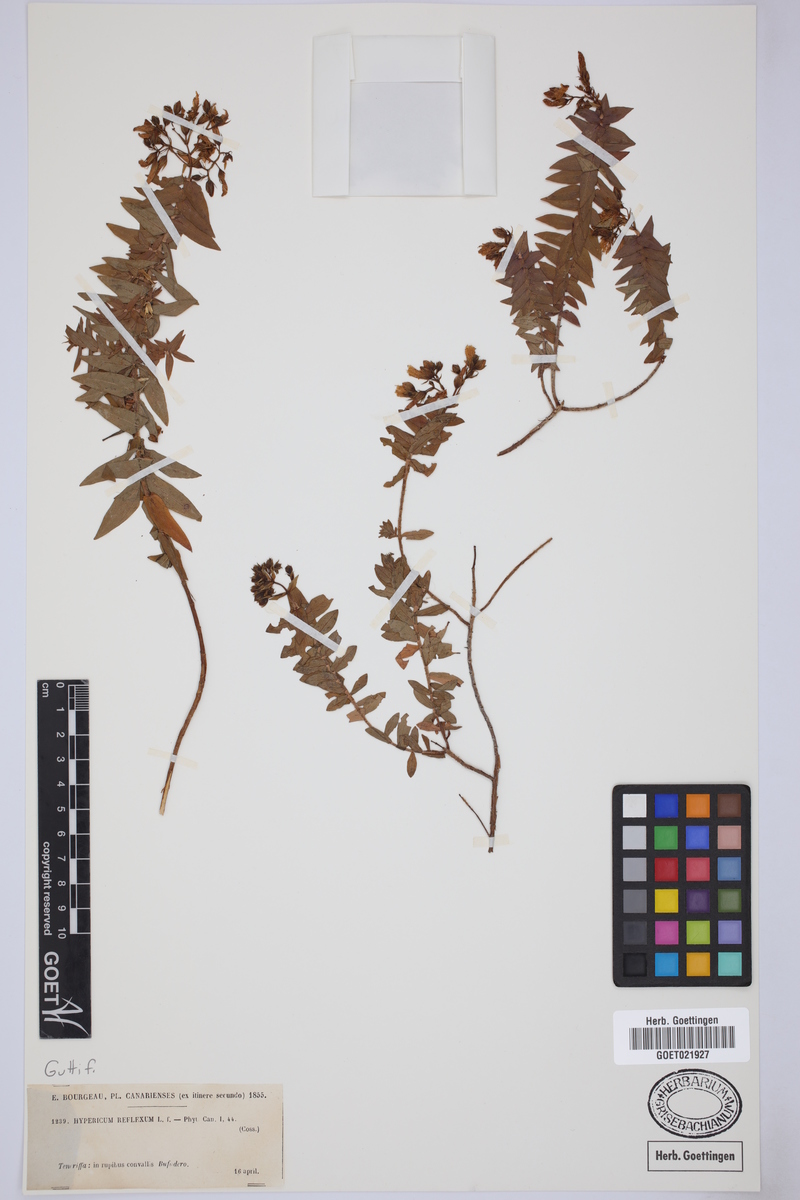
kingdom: Plantae
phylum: Tracheophyta
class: Magnoliopsida
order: Malpighiales
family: Hypericaceae
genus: Hypericum
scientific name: Hypericum reflexum
